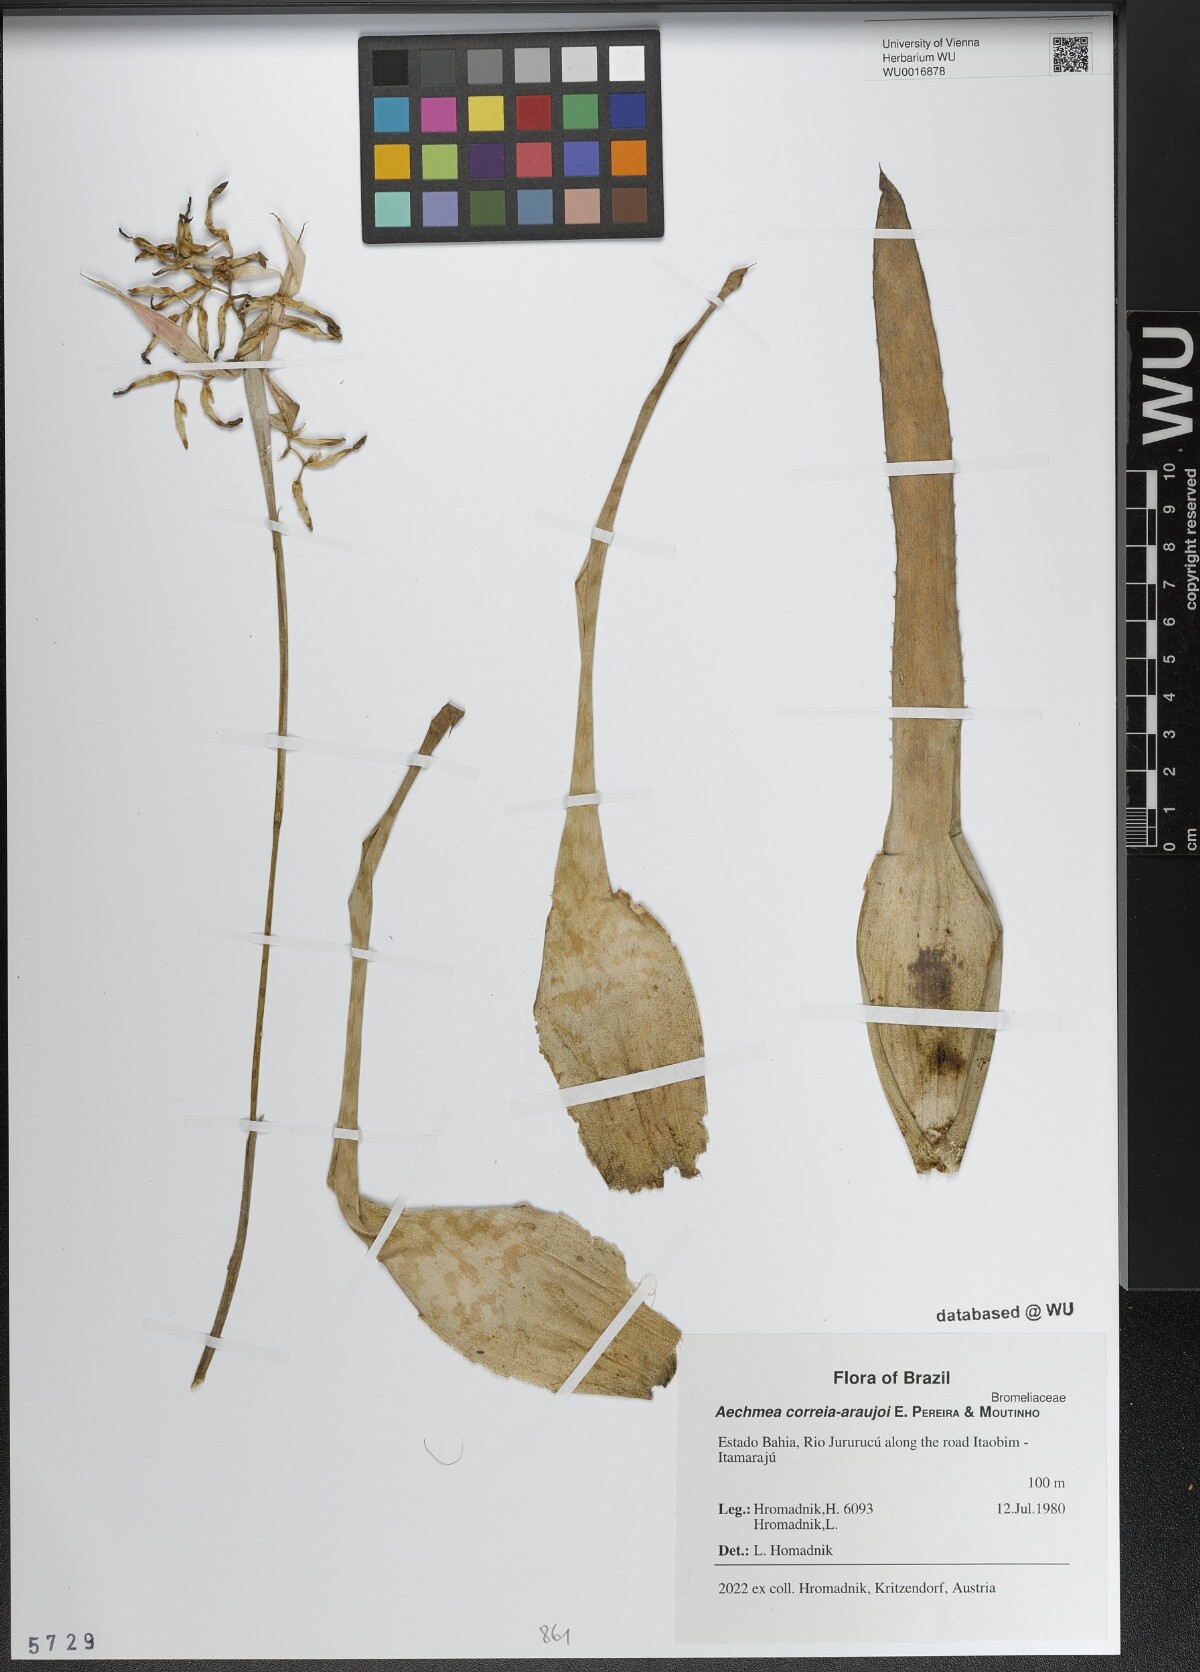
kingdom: Plantae
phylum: Tracheophyta
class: Liliopsida
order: Poales
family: Bromeliaceae
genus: Aechmea
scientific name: Aechmea correia-araujoi
